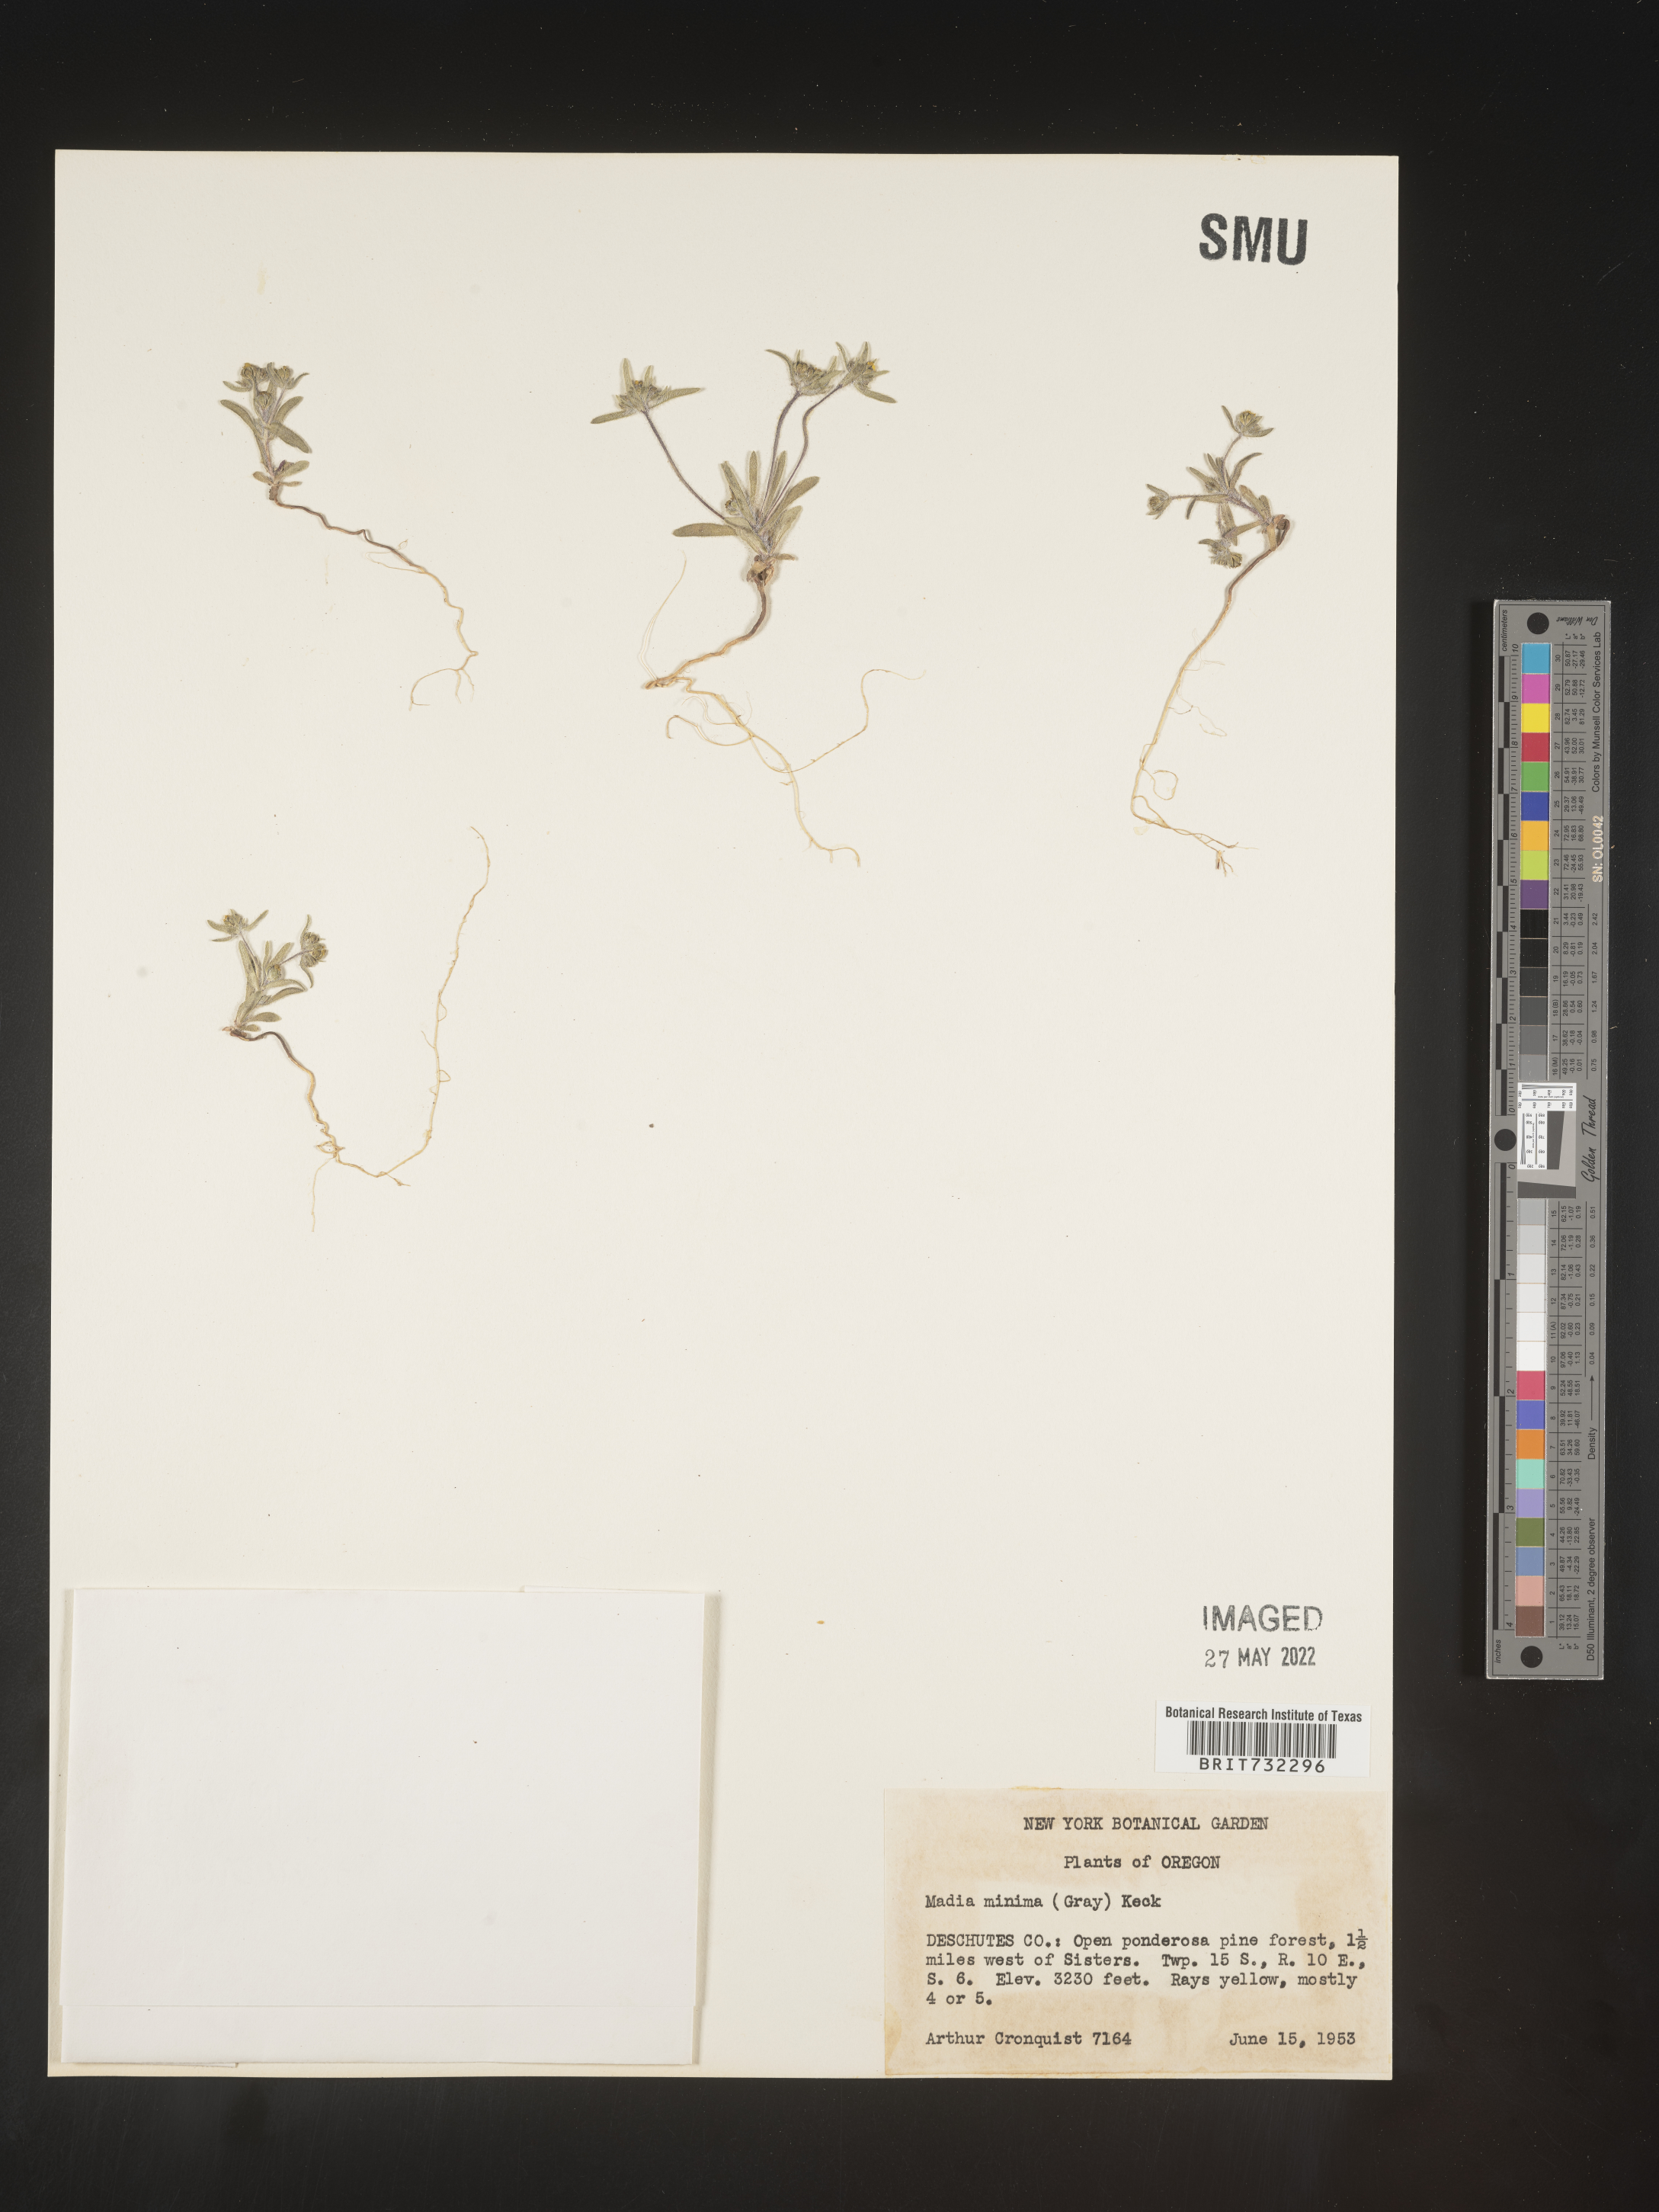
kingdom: Plantae
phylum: Tracheophyta
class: Magnoliopsida
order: Asterales
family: Asteraceae
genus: Madia
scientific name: Madia
